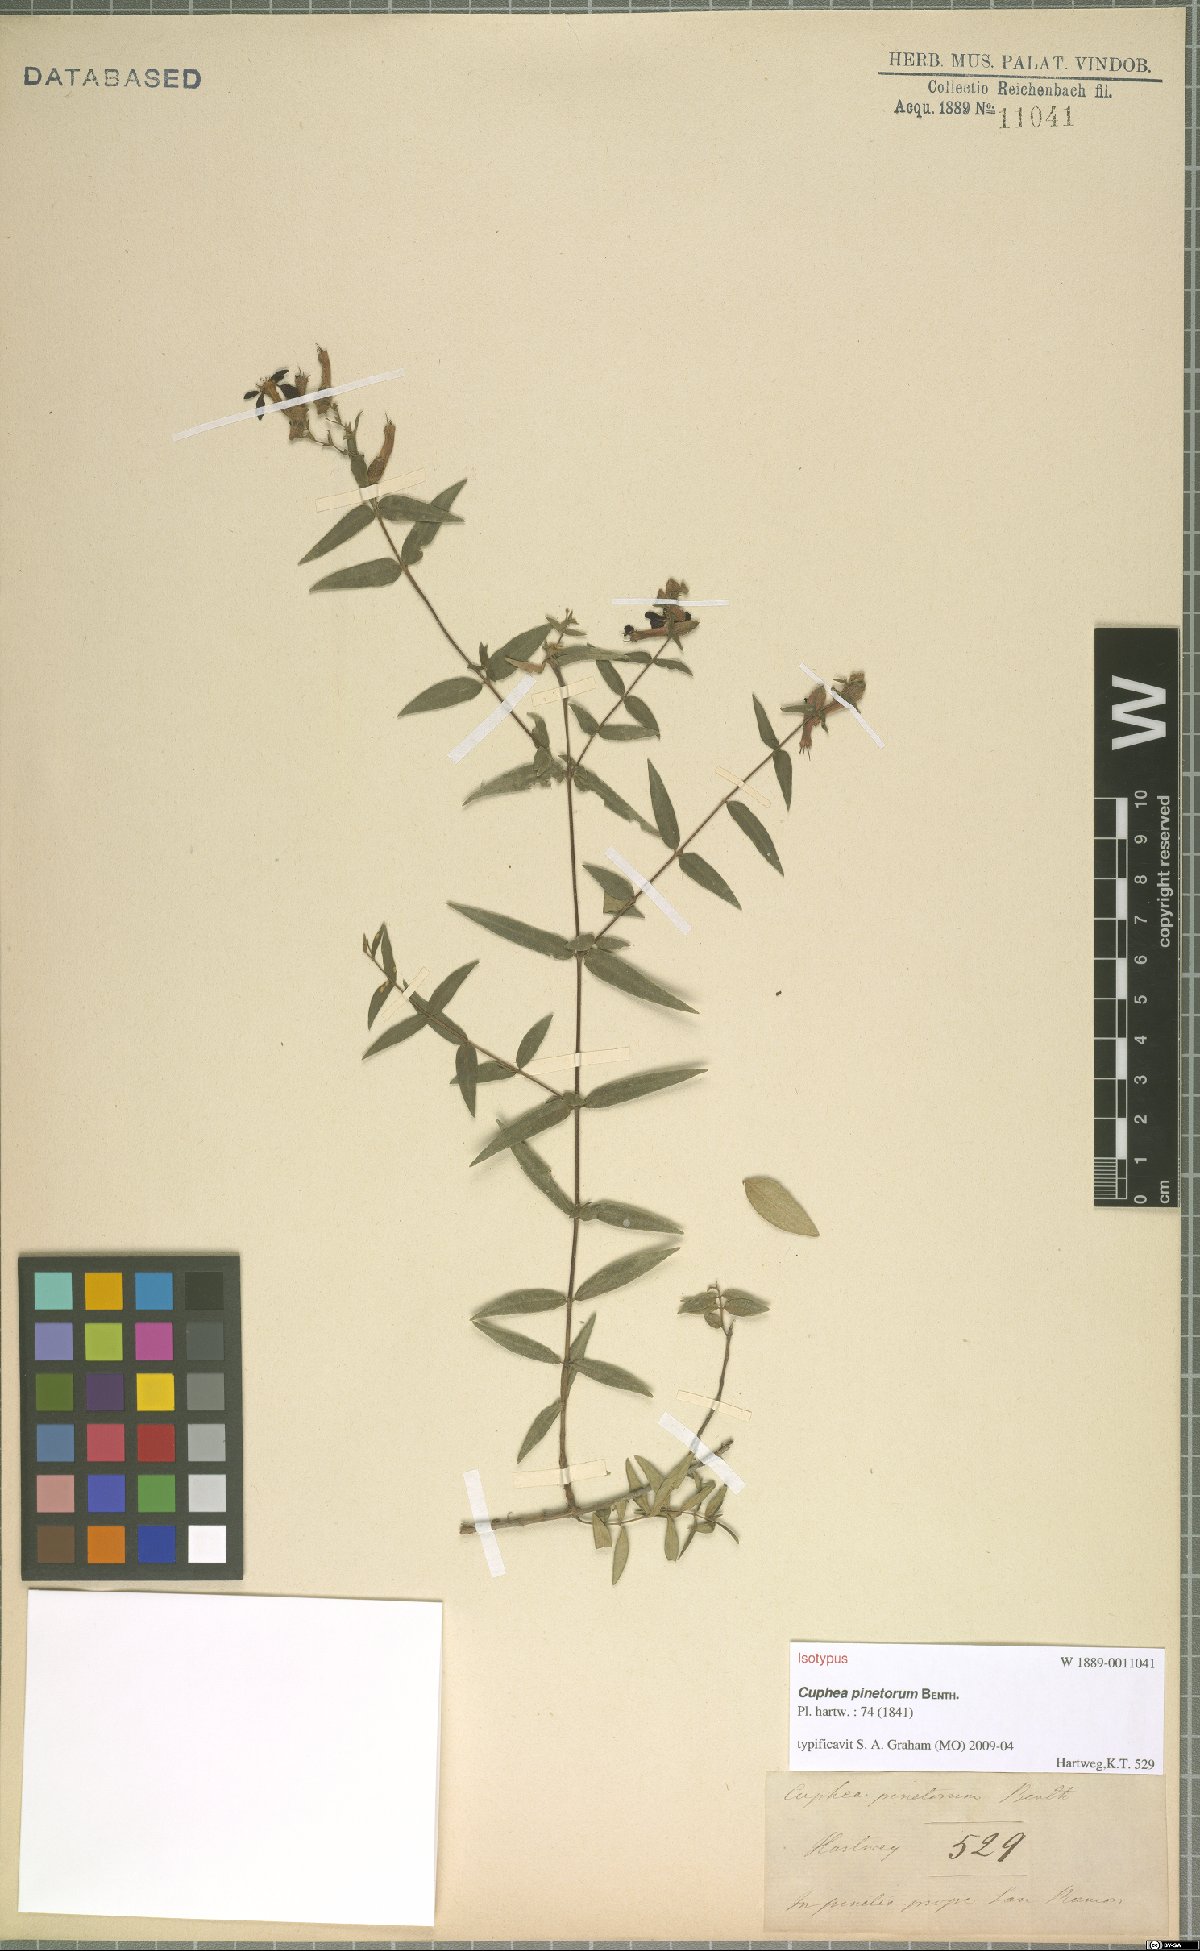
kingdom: Plantae
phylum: Tracheophyta
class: Magnoliopsida
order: Myrtales
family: Lythraceae
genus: Cuphea
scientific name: Cuphea pinetorum
